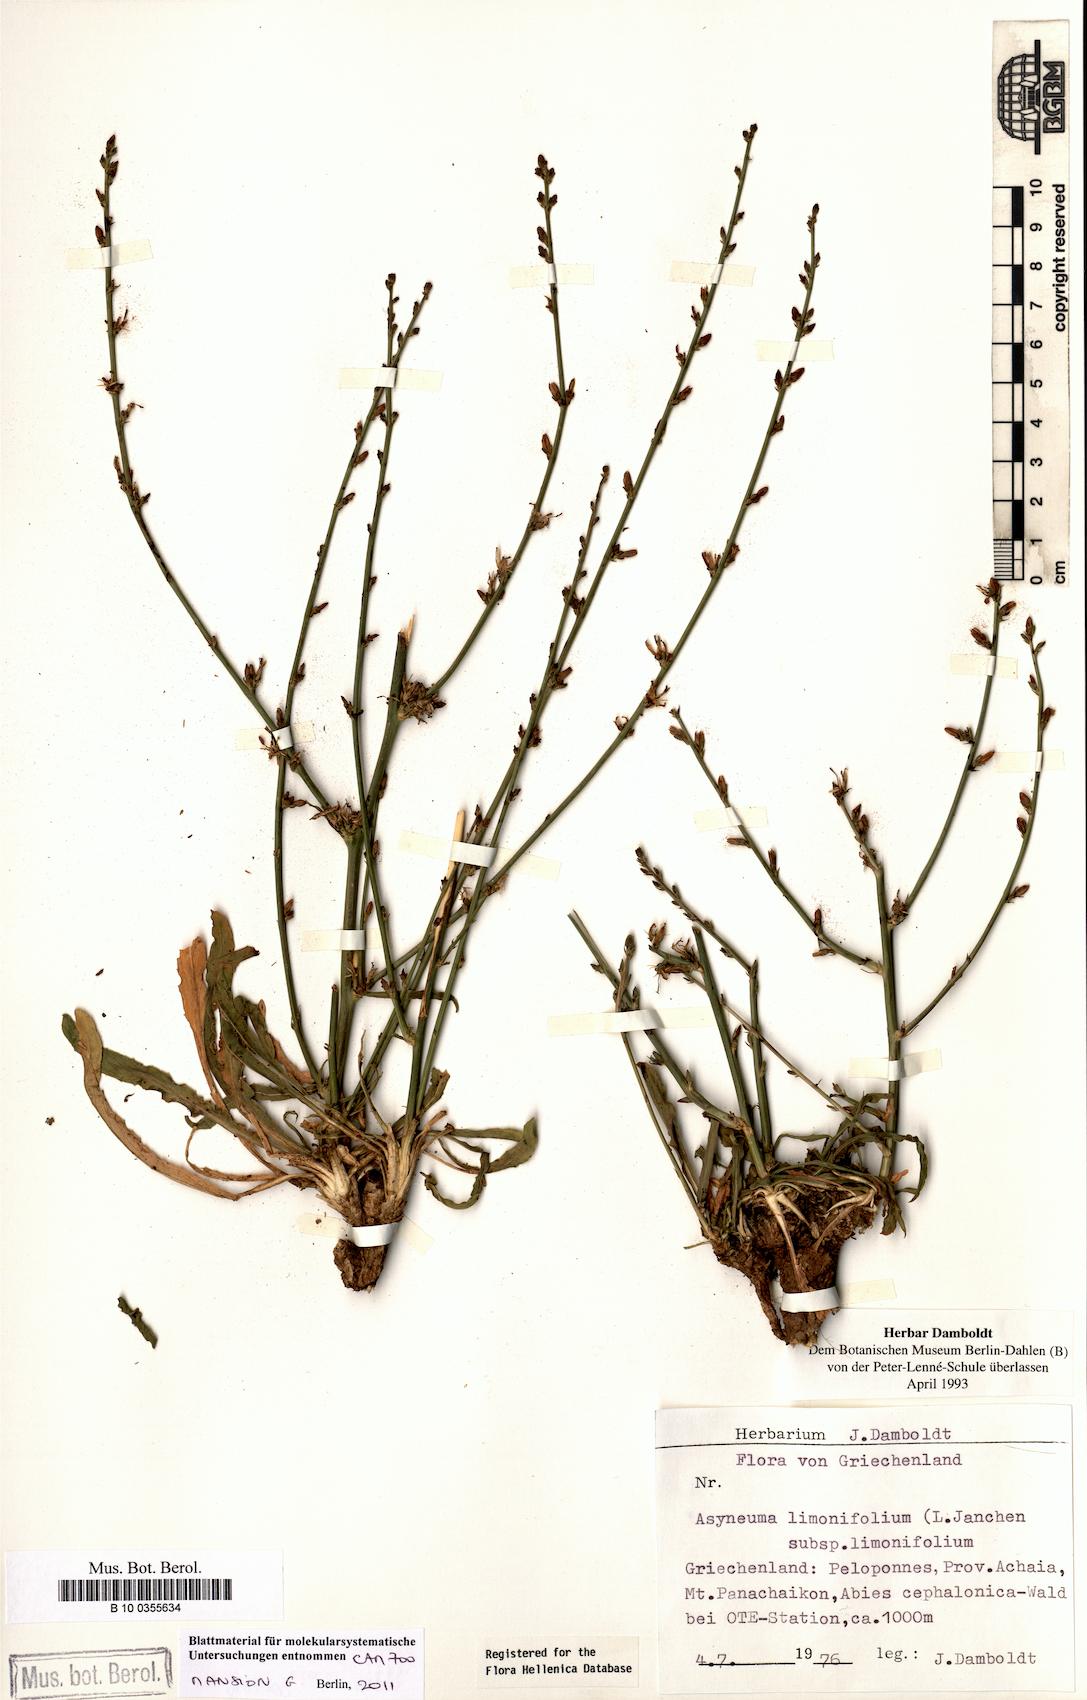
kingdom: Plantae
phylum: Tracheophyta
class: Magnoliopsida
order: Asterales
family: Campanulaceae
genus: Asyneuma
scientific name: Asyneuma limonifolium
